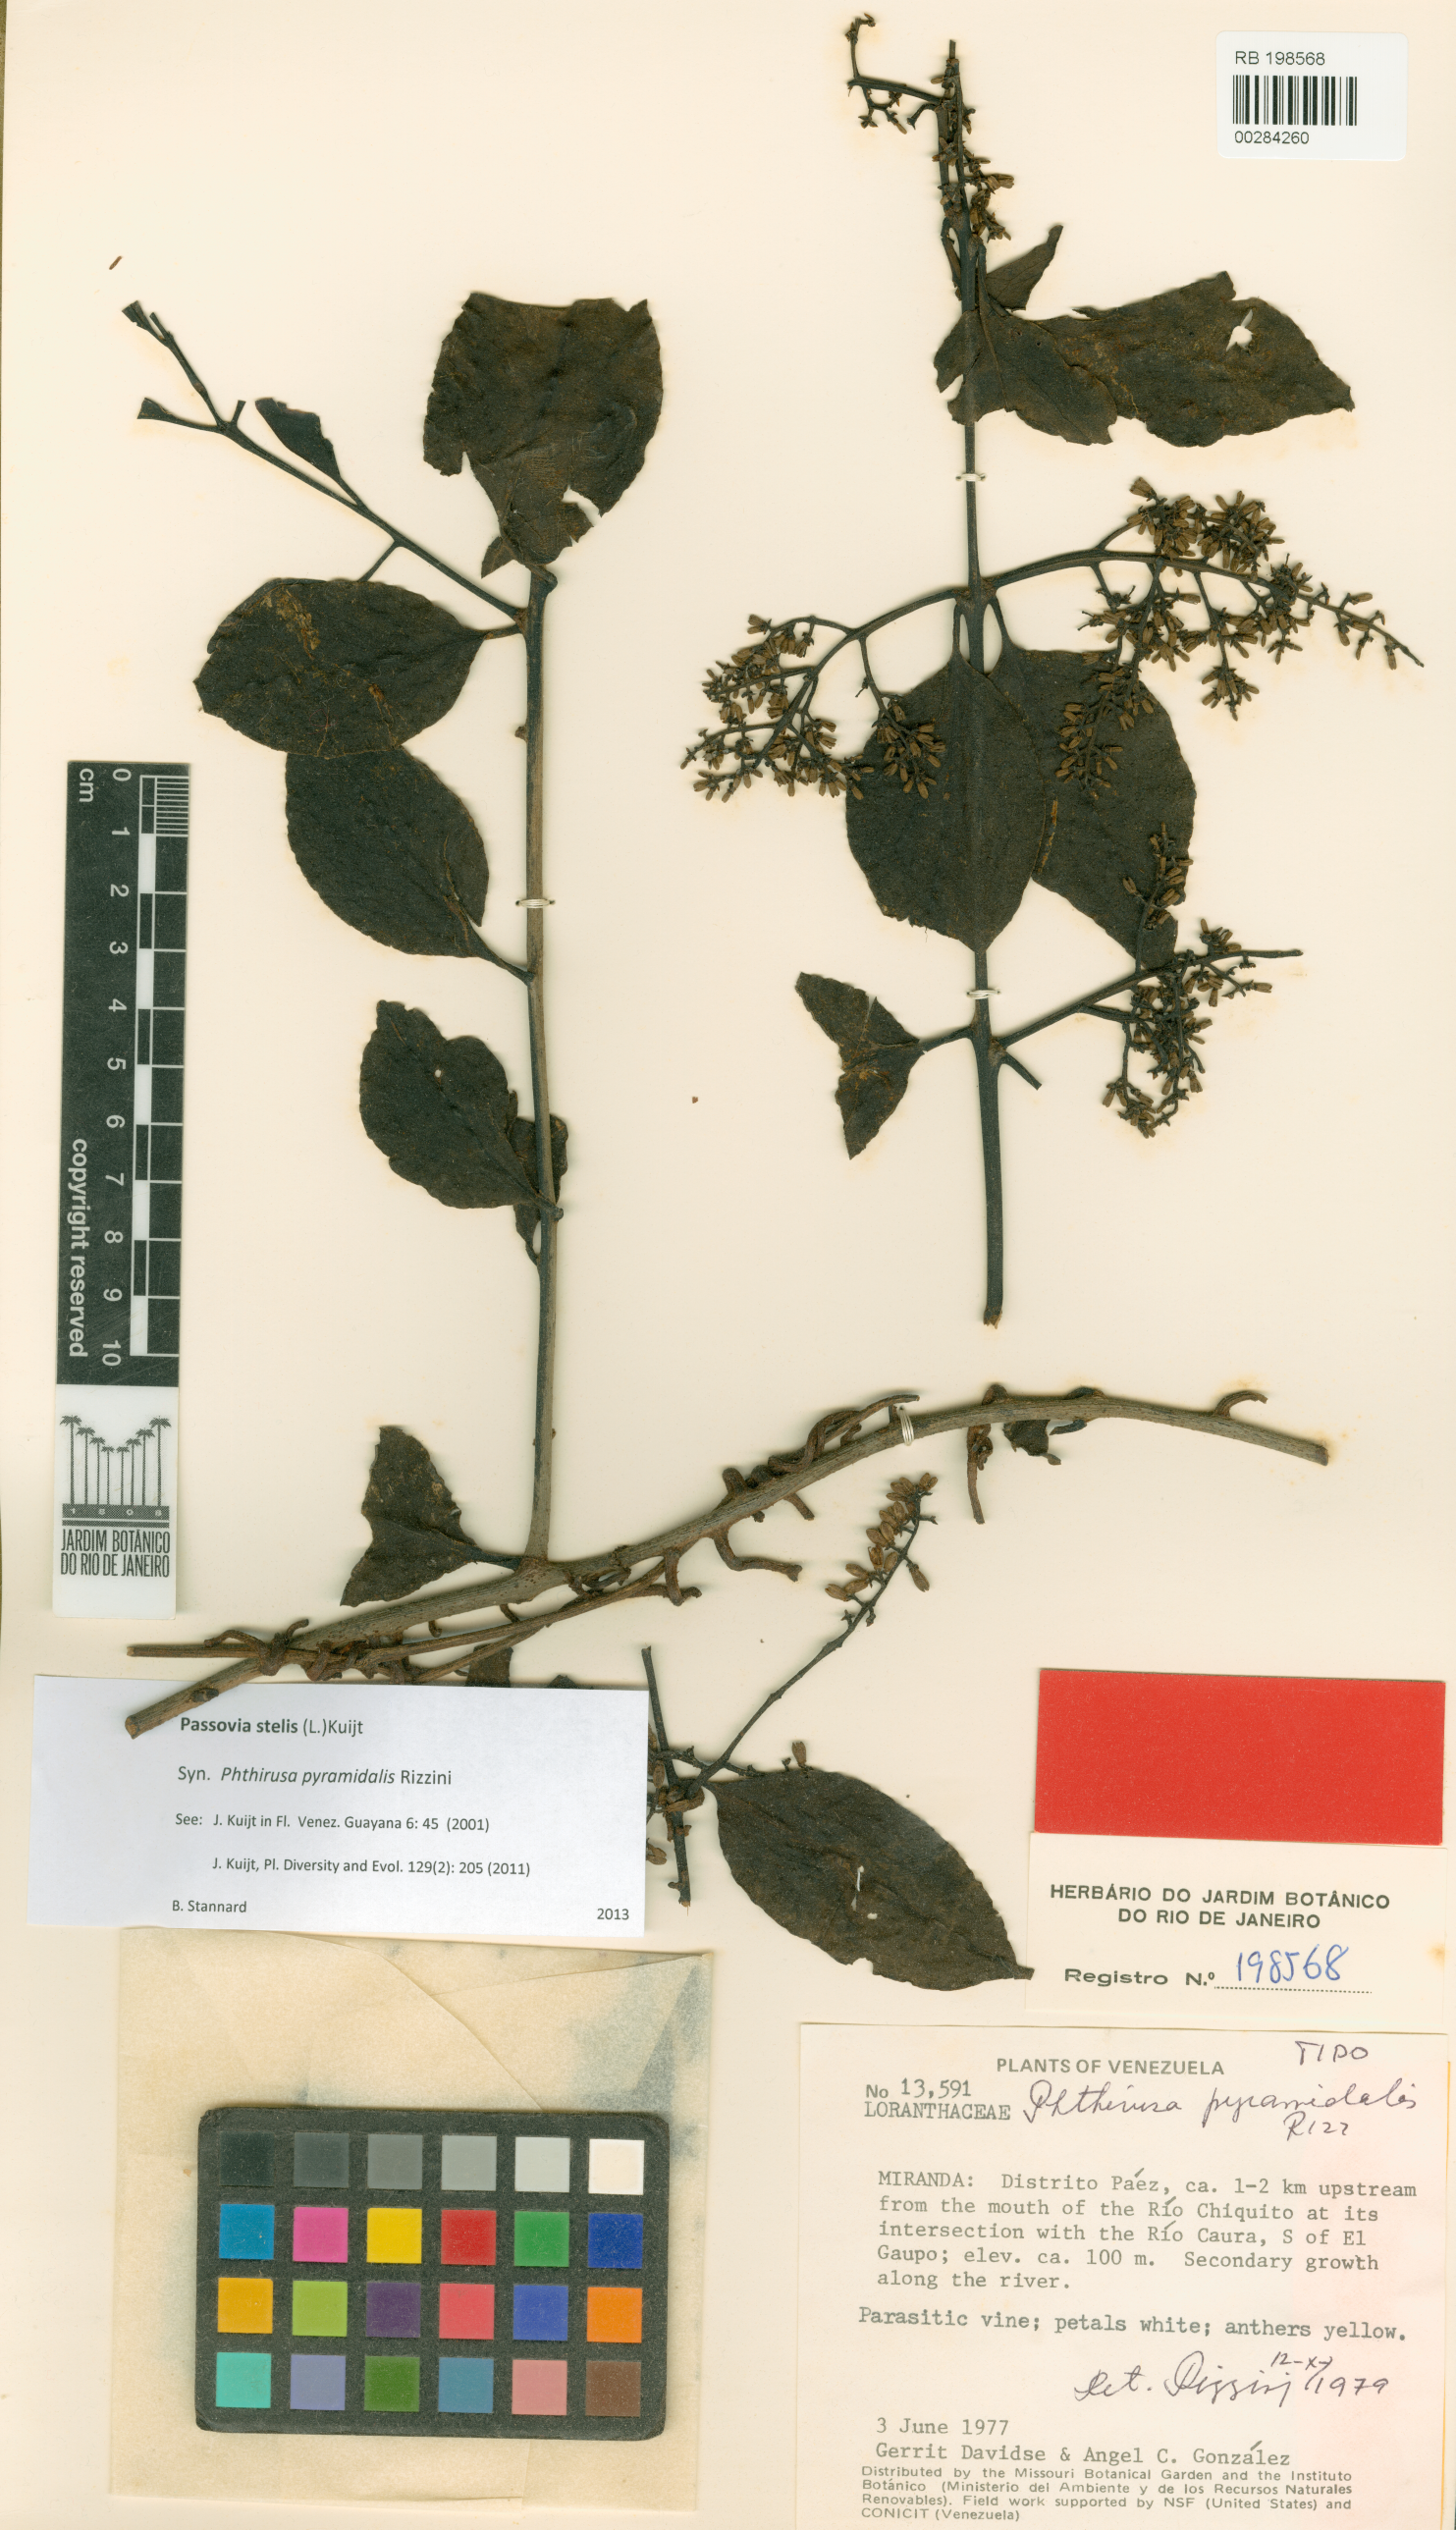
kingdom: Plantae
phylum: Tracheophyta
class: Magnoliopsida
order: Santalales
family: Loranthaceae
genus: Passovia
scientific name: Passovia pedunculata
